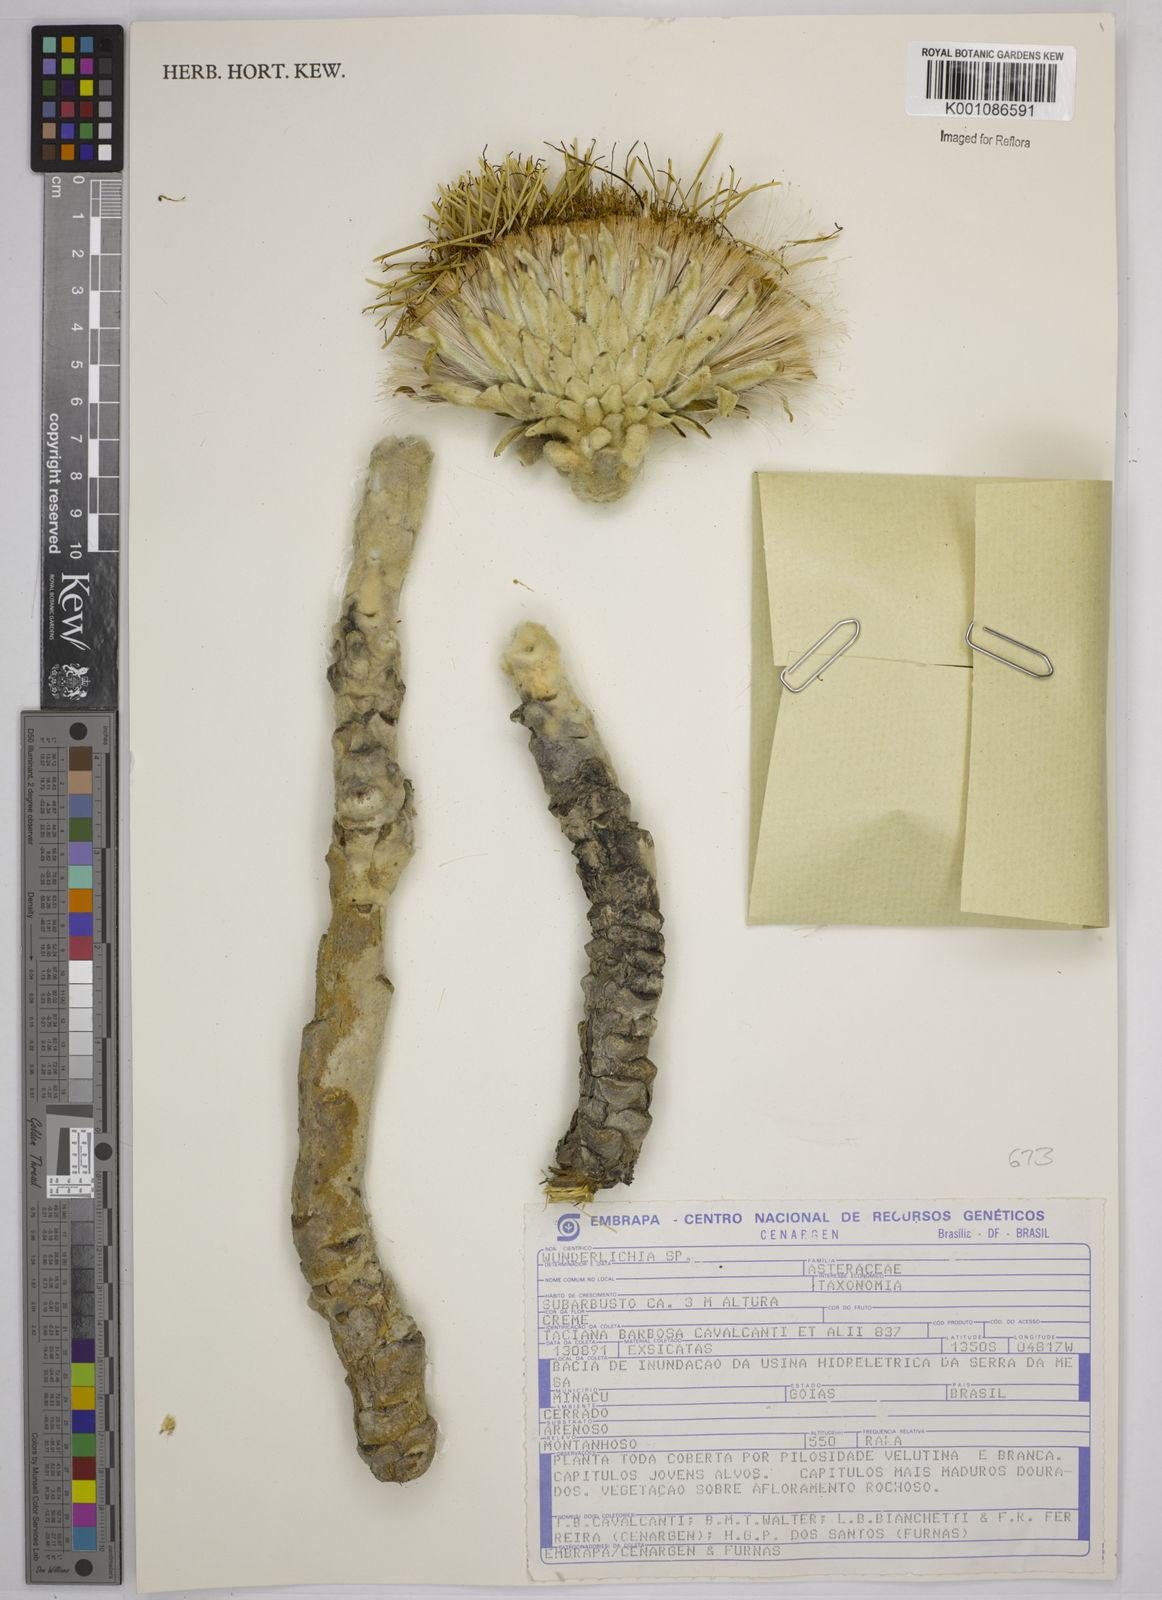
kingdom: Plantae
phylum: Tracheophyta
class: Magnoliopsida
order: Asterales
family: Asteraceae
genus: Wunderlichia
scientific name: Wunderlichia mirabilis
